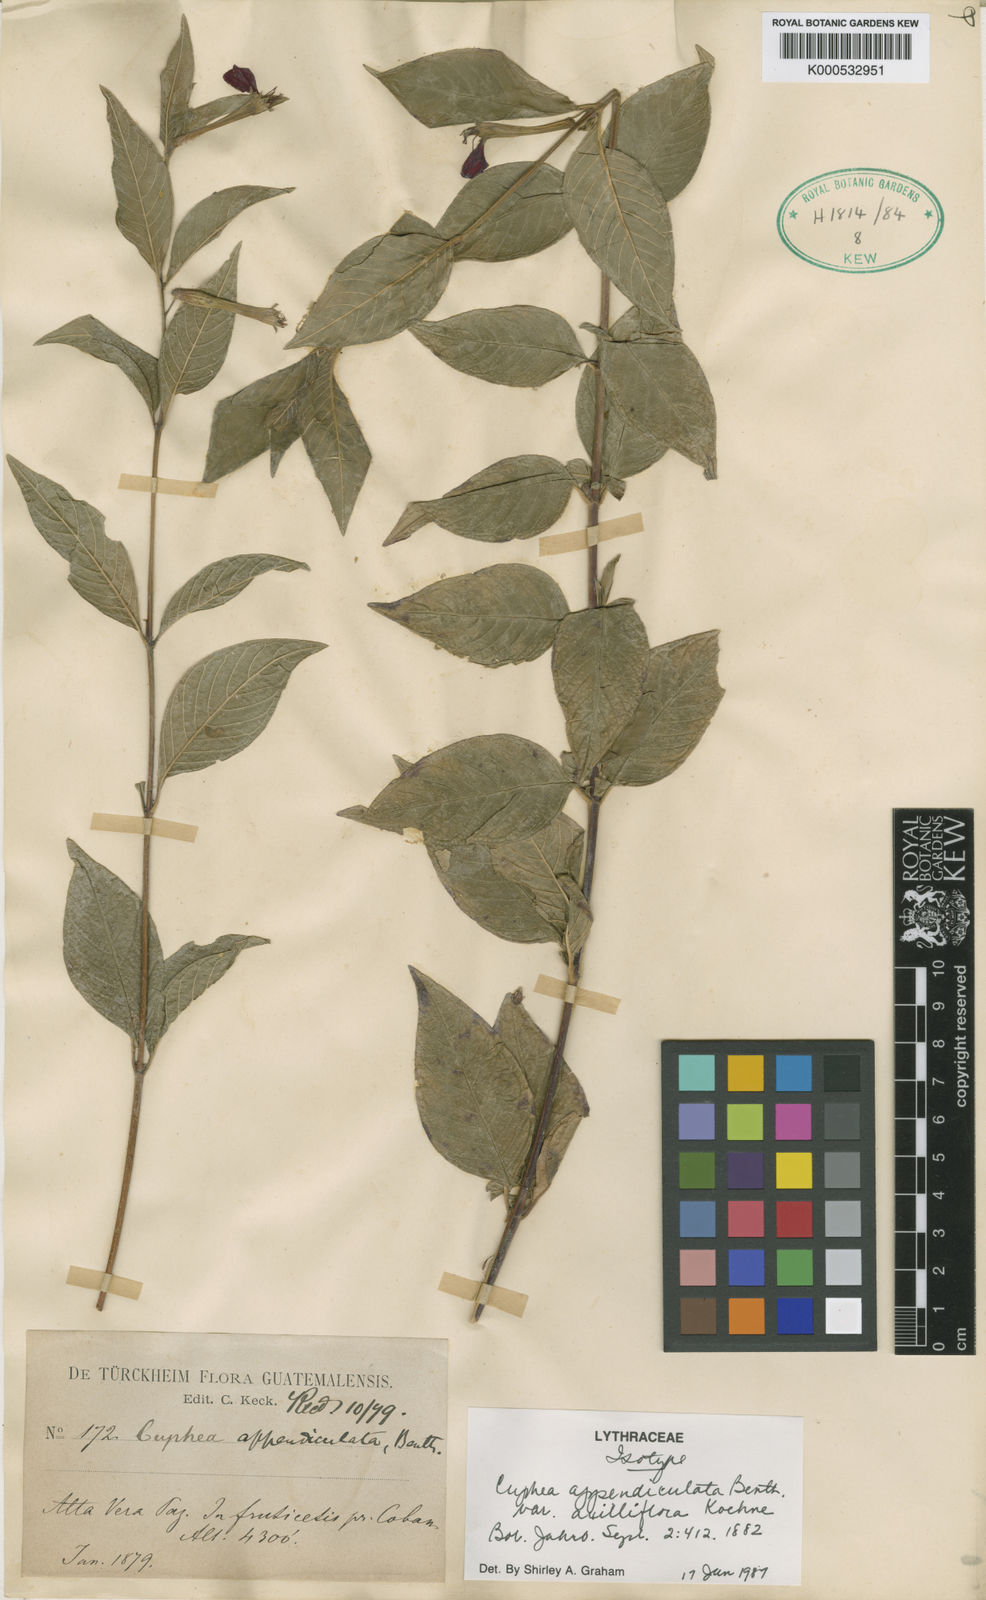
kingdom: Plantae
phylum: Tracheophyta
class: Magnoliopsida
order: Myrtales
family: Lythraceae
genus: Cuphea
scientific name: Cuphea axilliflora
